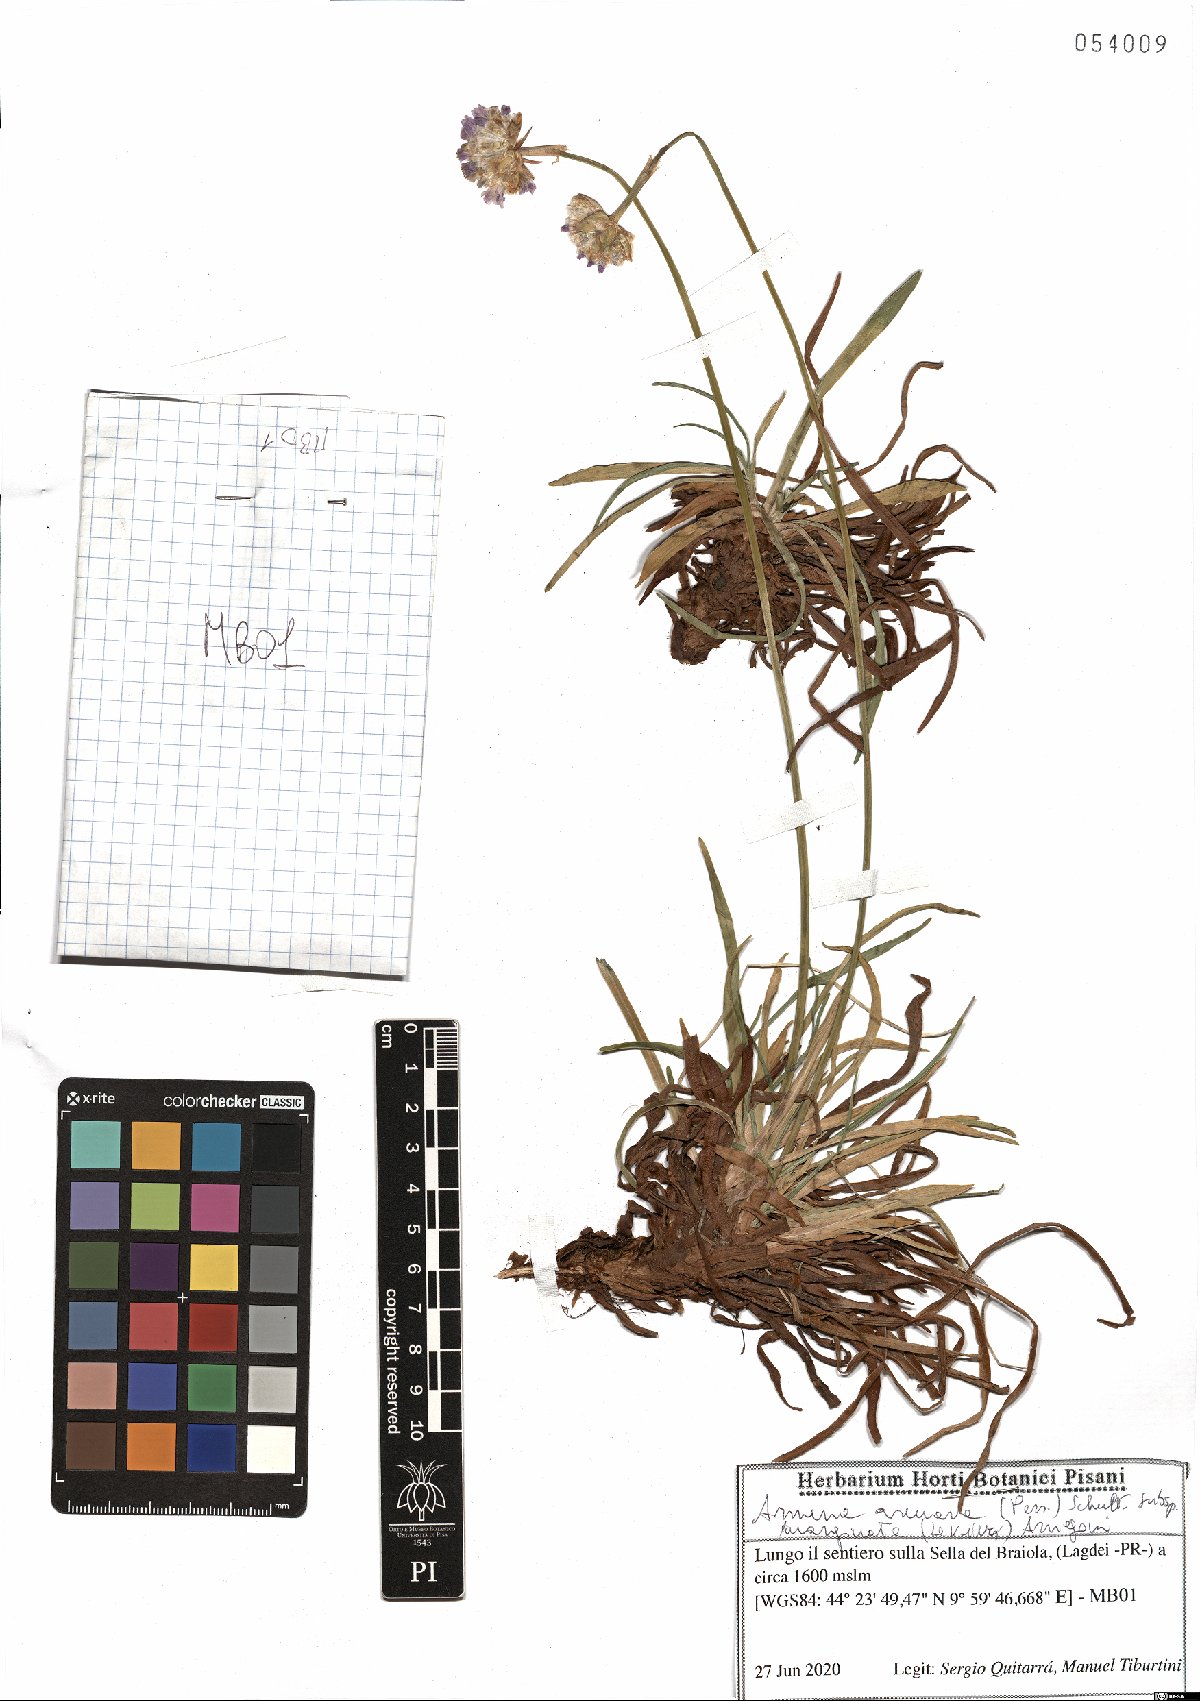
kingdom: Plantae
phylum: Tracheophyta
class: Magnoliopsida
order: Caryophyllales
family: Plumbaginaceae
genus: Armeria
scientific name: Armeria arenaria
